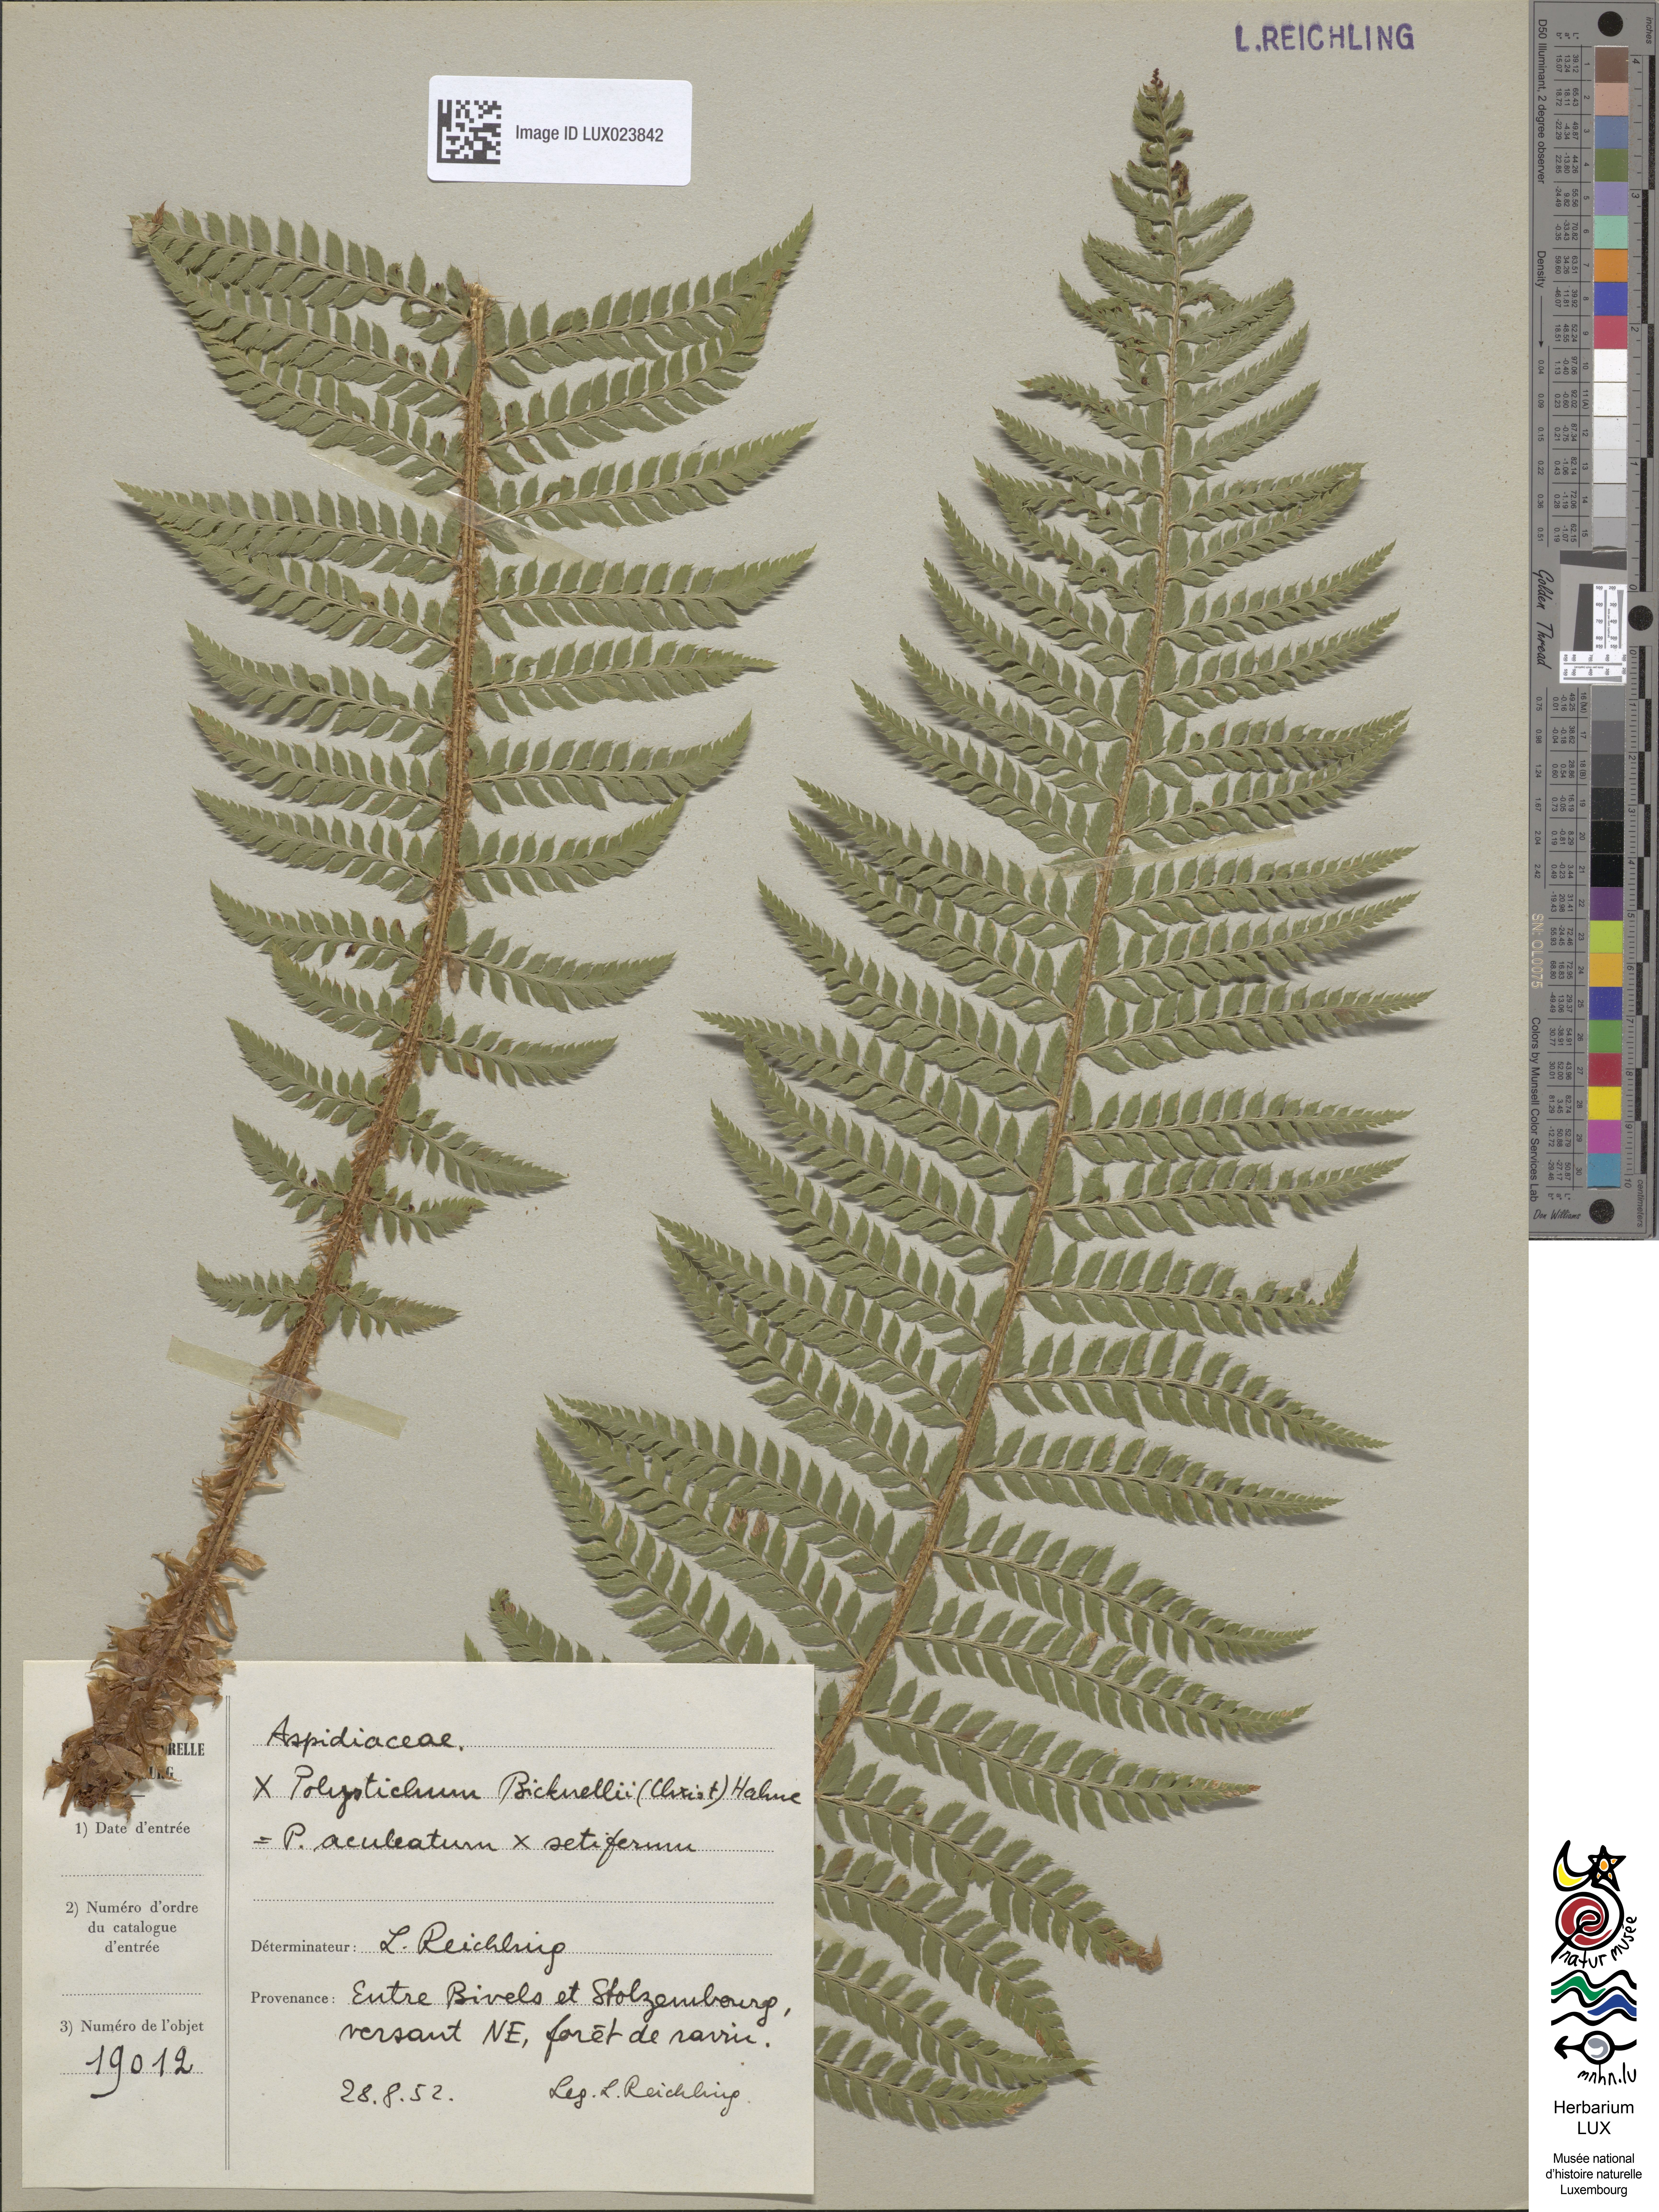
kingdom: Plantae
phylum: Tracheophyta
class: Polypodiopsida
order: Polypodiales
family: Dryopteridaceae
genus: Polystichum
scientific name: Polystichum
